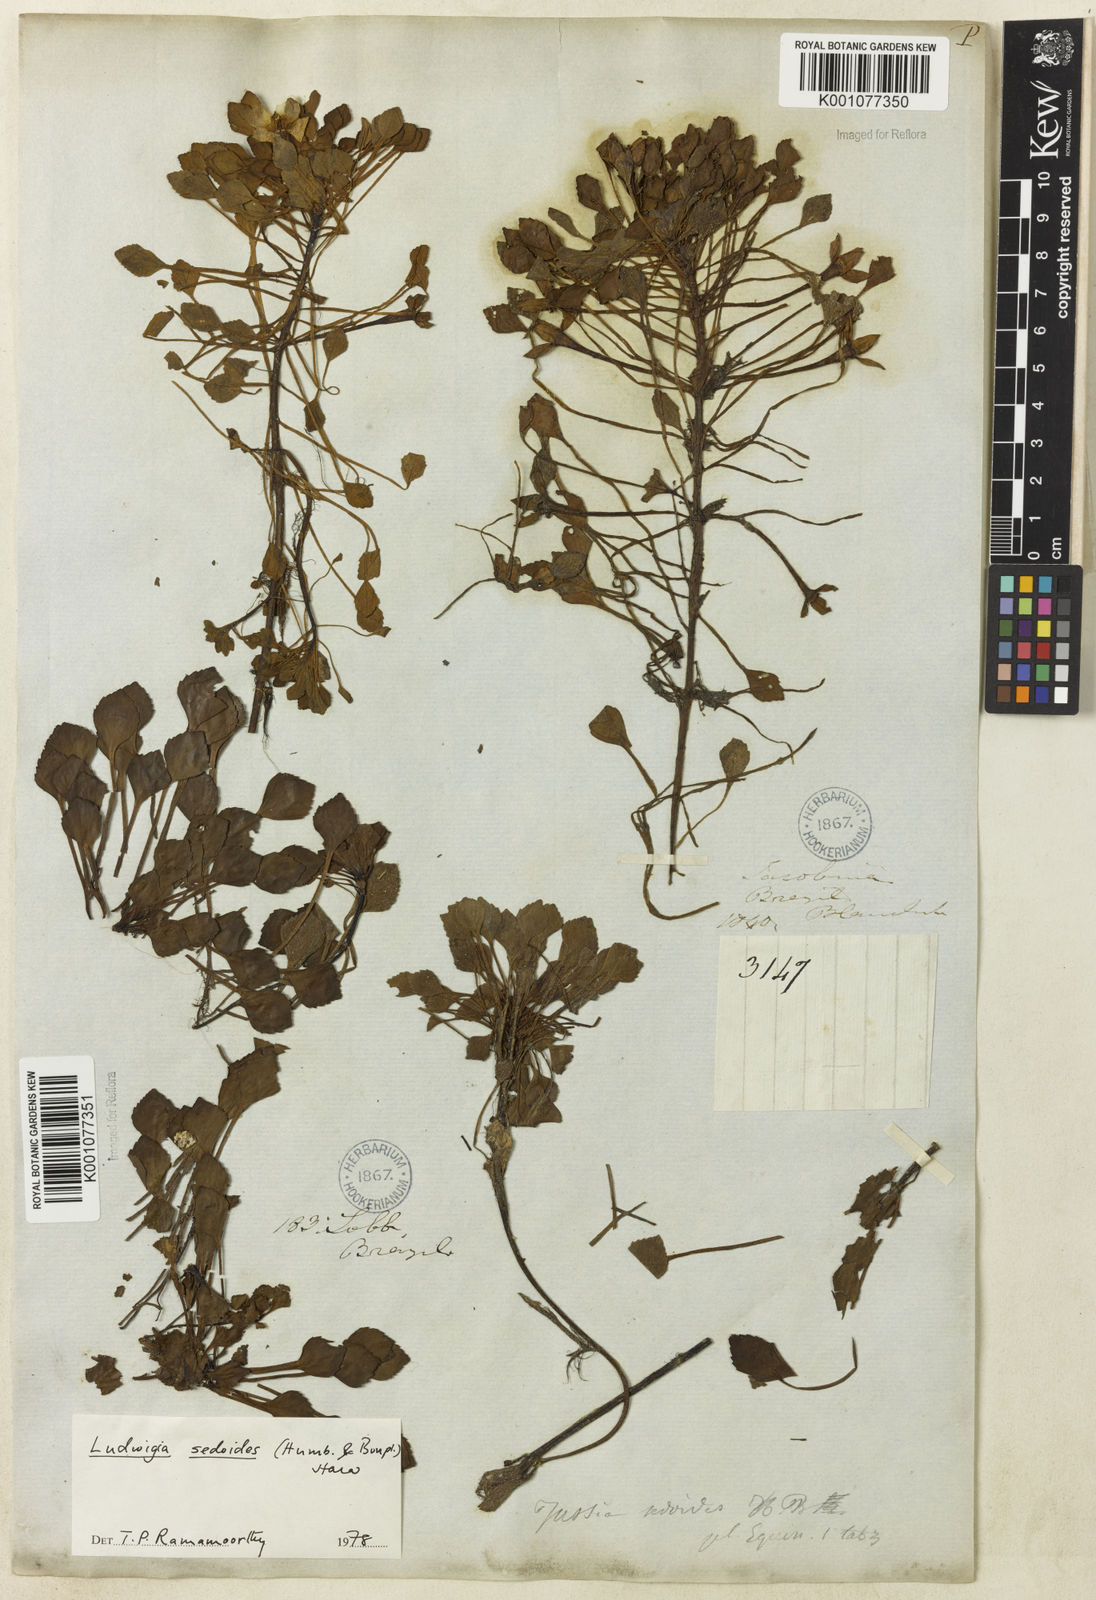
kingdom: Plantae
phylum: Tracheophyta
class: Magnoliopsida
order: Myrtales
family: Onagraceae
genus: Ludwigia
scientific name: Ludwigia sedoides
